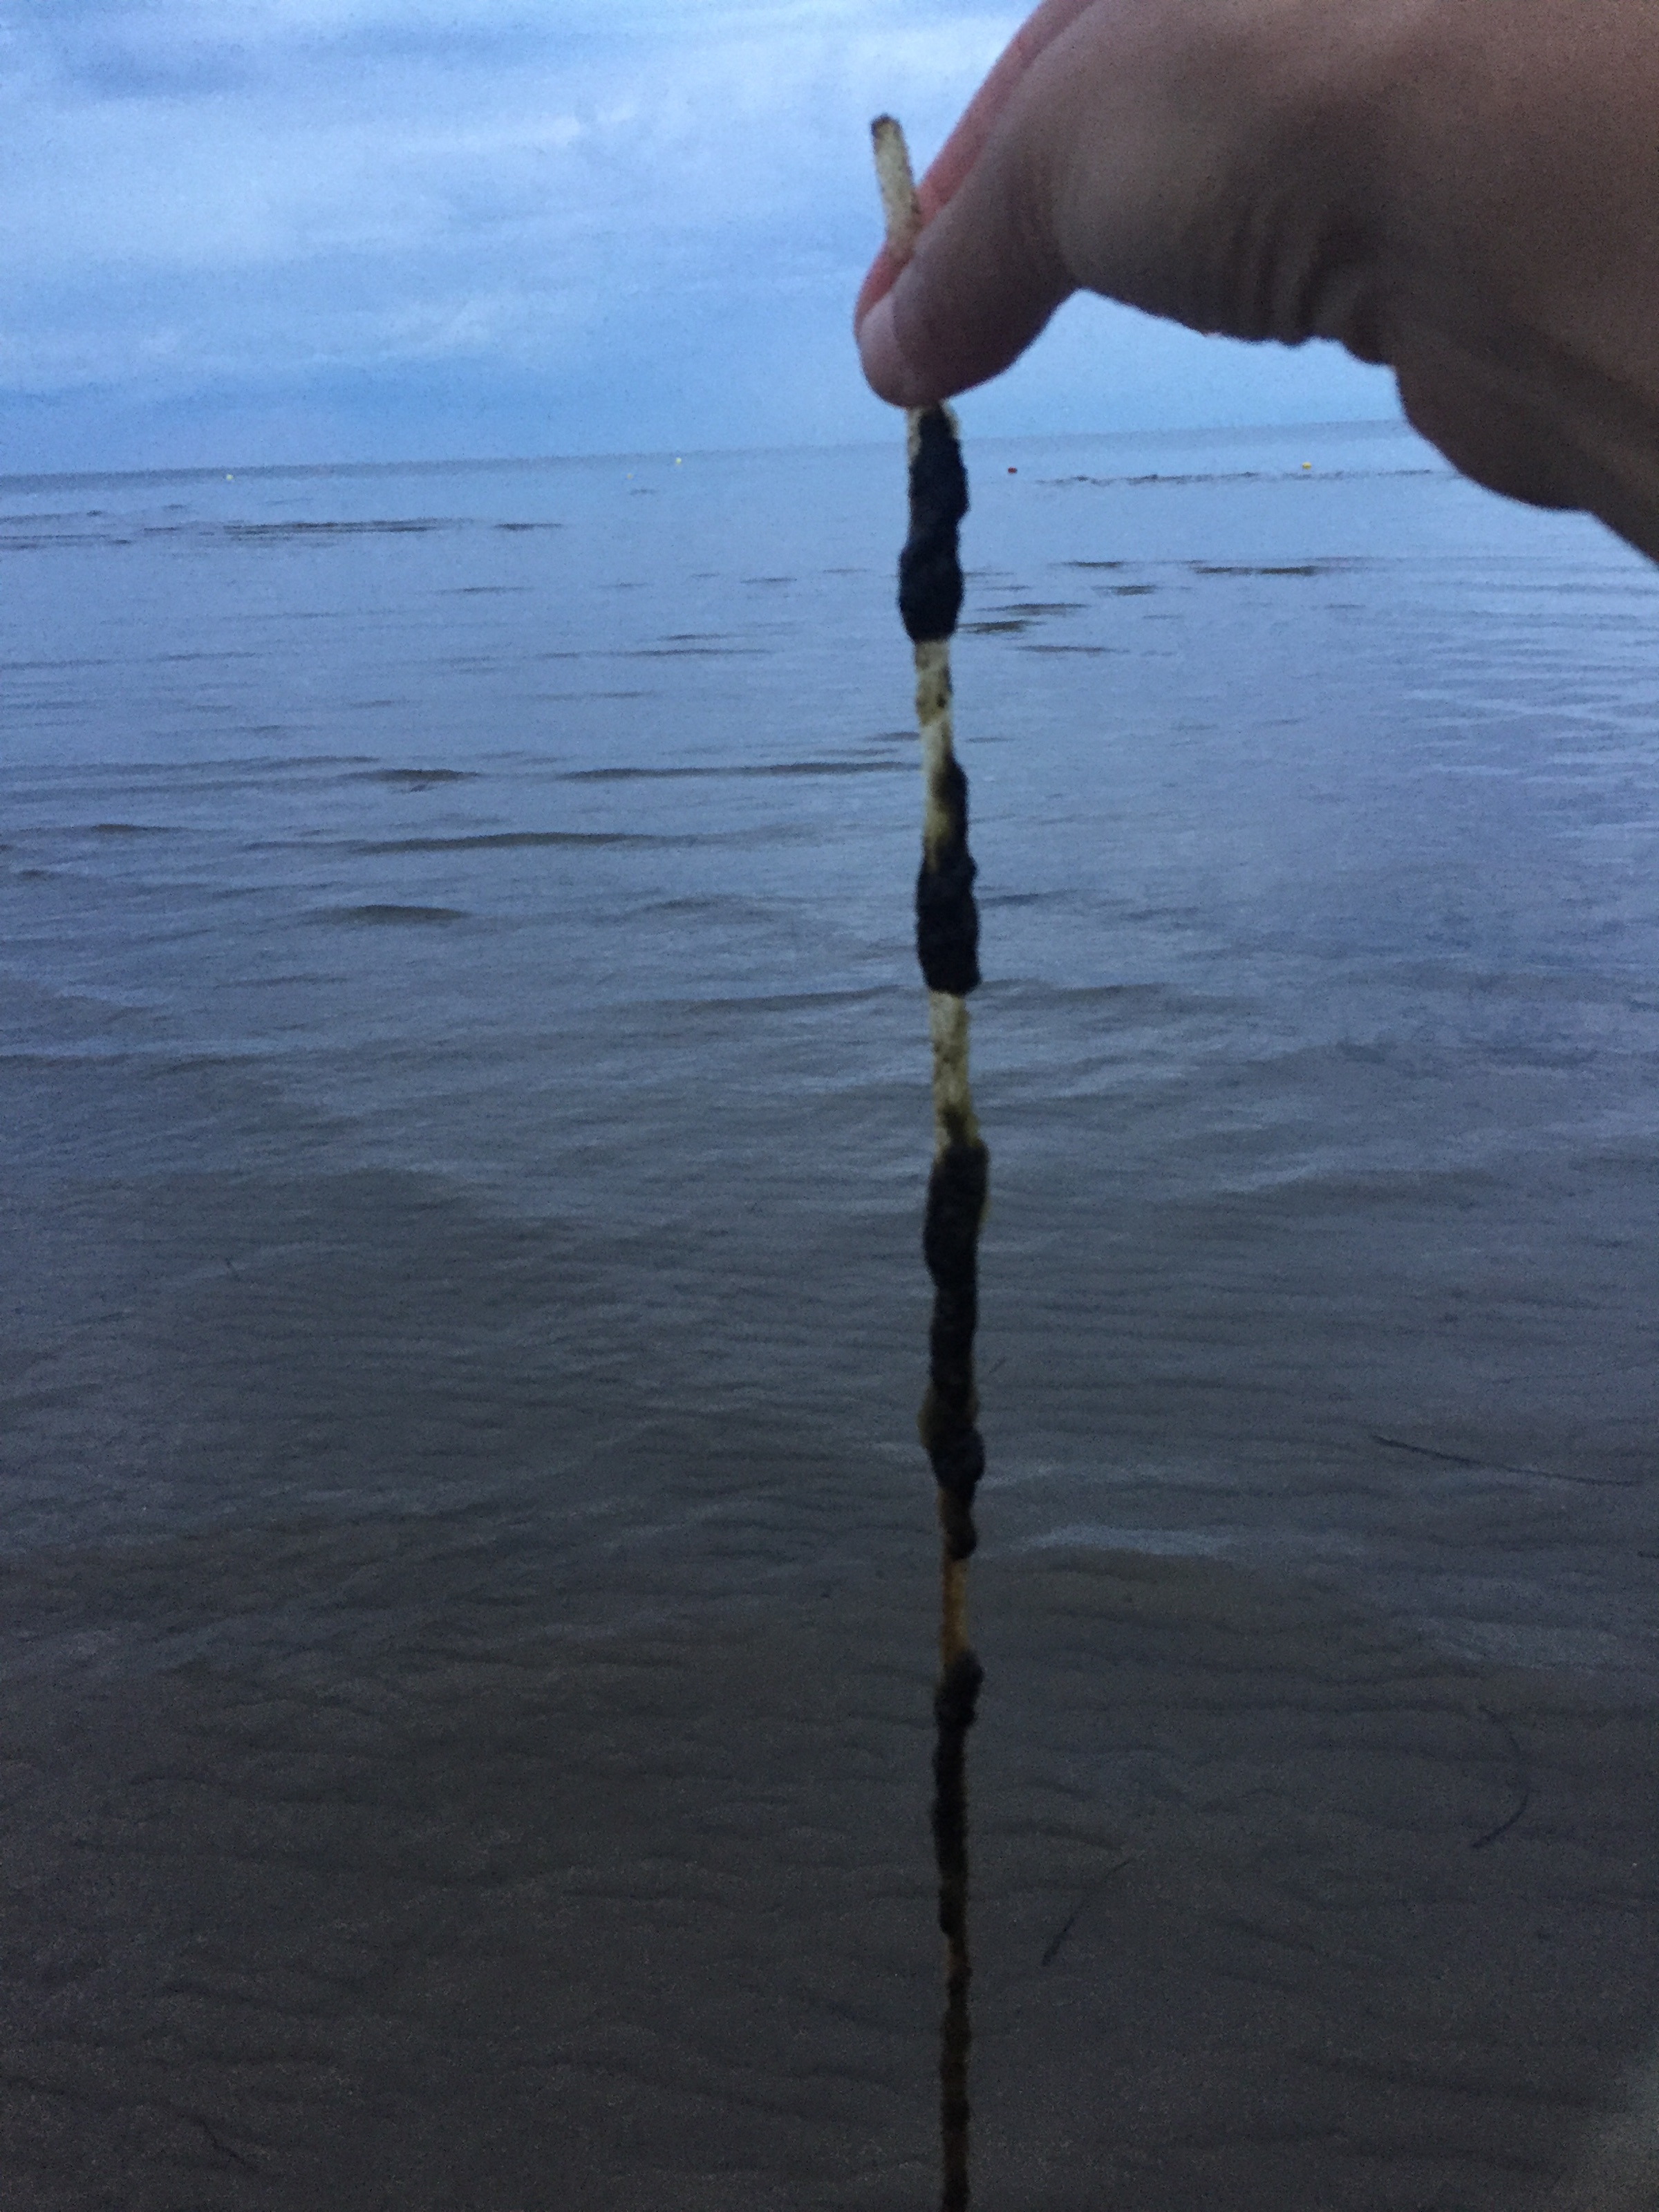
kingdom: Plantae
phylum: Tracheophyta
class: Liliopsida
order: Alismatales
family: Zosteraceae
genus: Zostera
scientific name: Zostera marina
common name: Eelgrass
